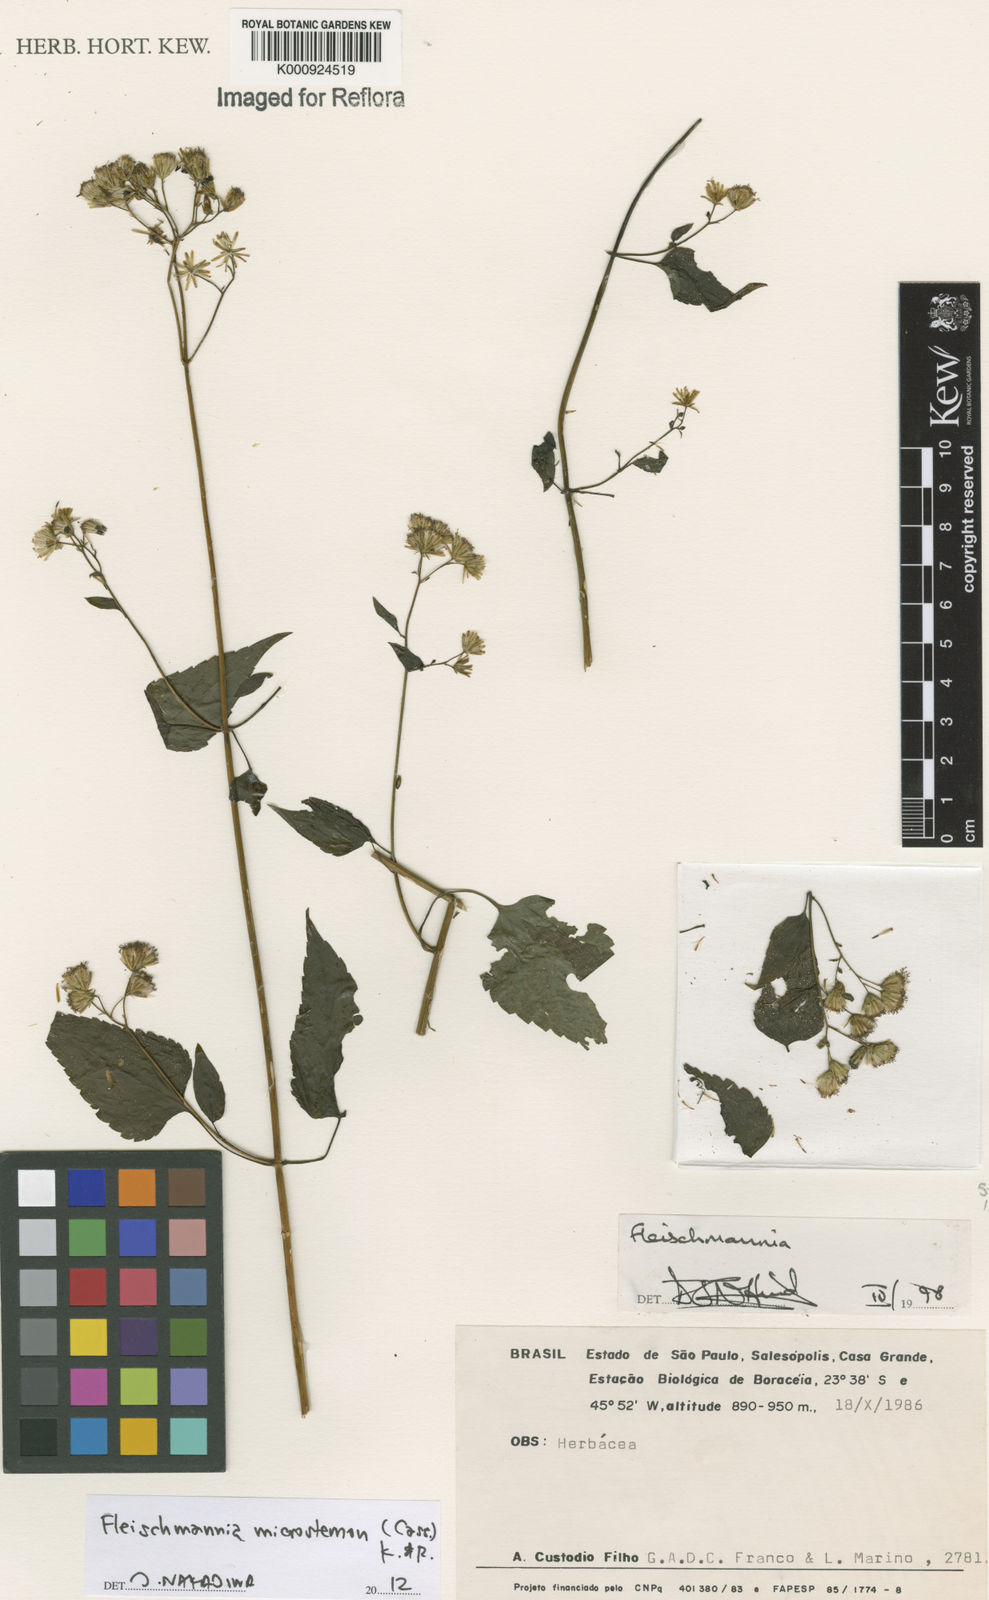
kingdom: Plantae
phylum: Tracheophyta
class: Magnoliopsida
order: Asterales
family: Asteraceae
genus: Fleischmannia
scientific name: Fleischmannia microstemon
